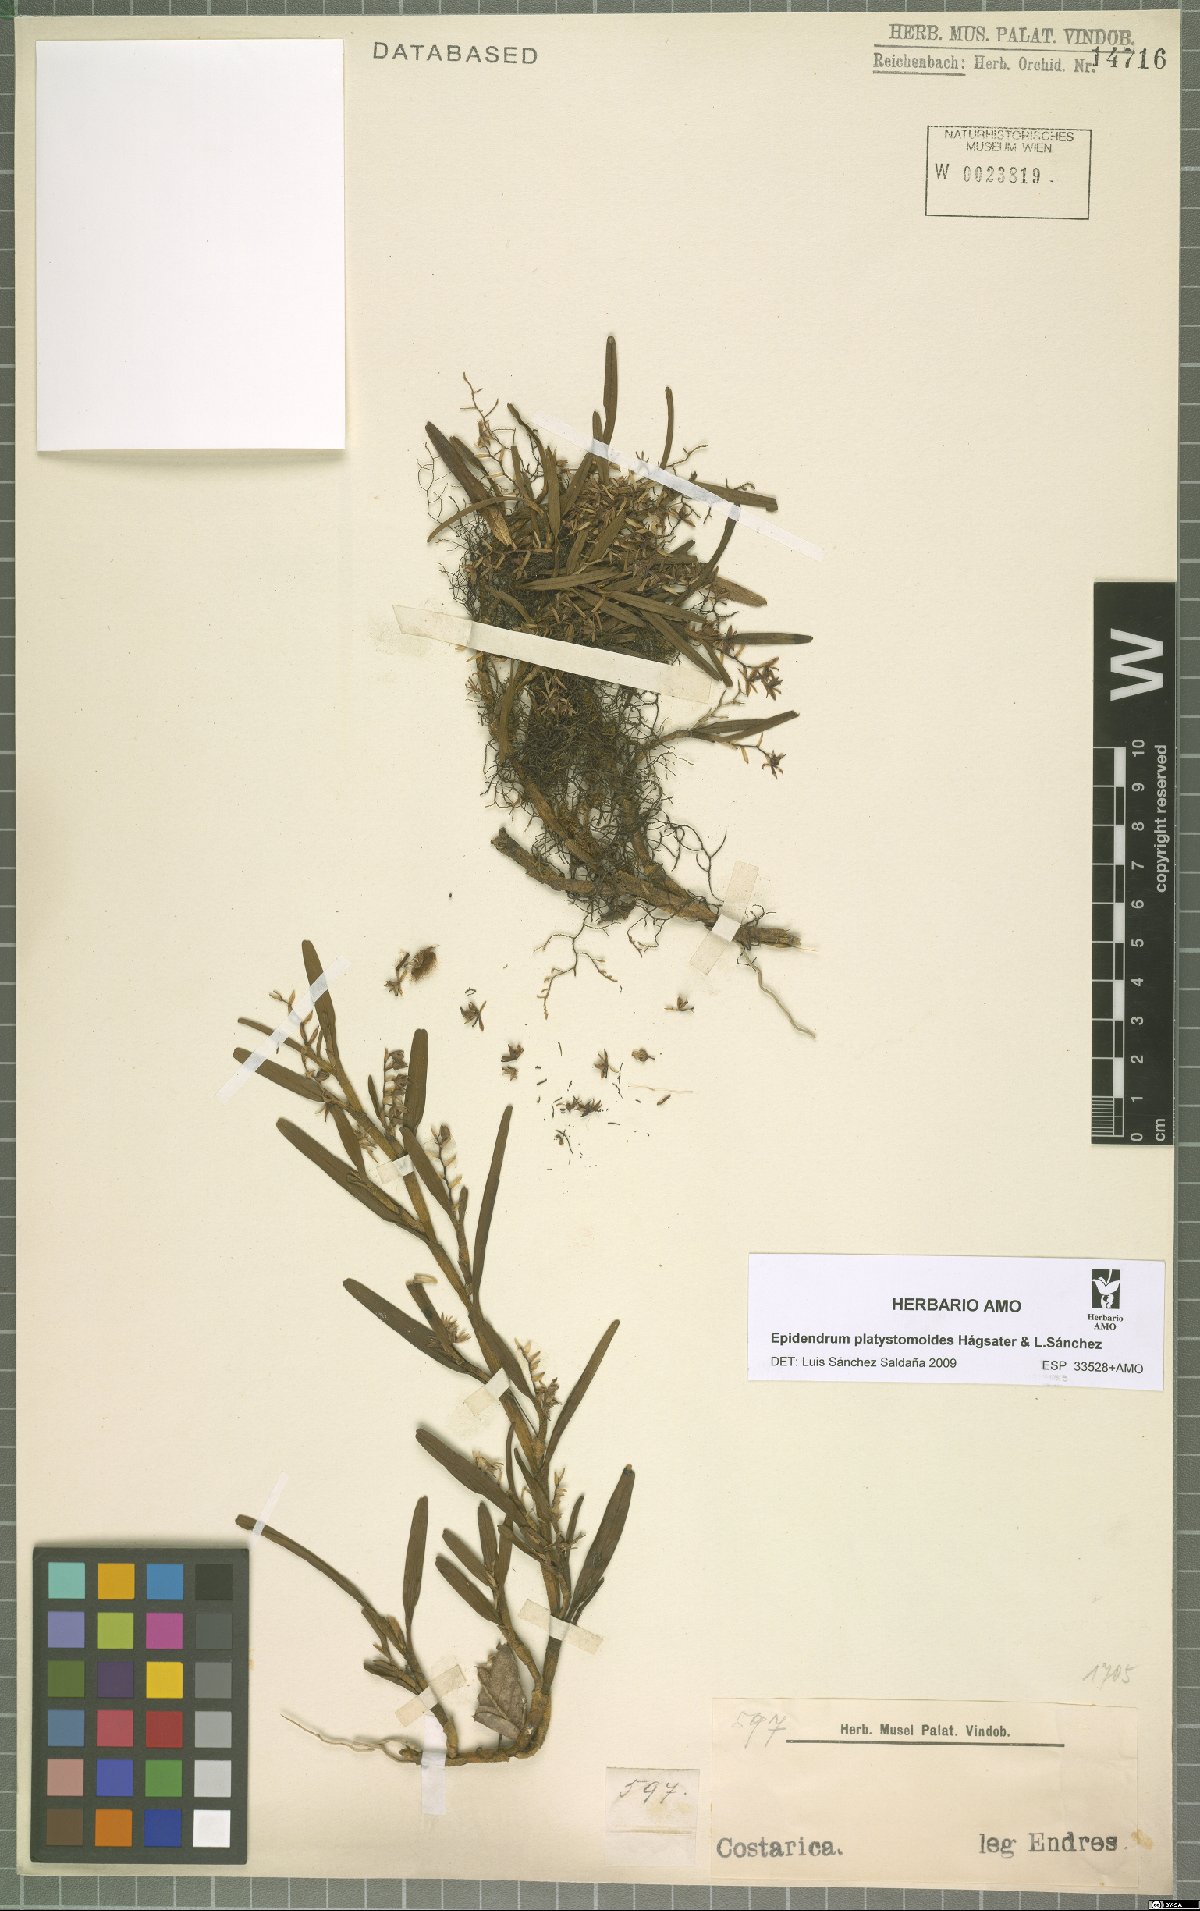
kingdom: Plantae
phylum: Tracheophyta
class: Liliopsida
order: Asparagales
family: Orchidaceae
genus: Epidendrum
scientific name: Epidendrum platystomoides
